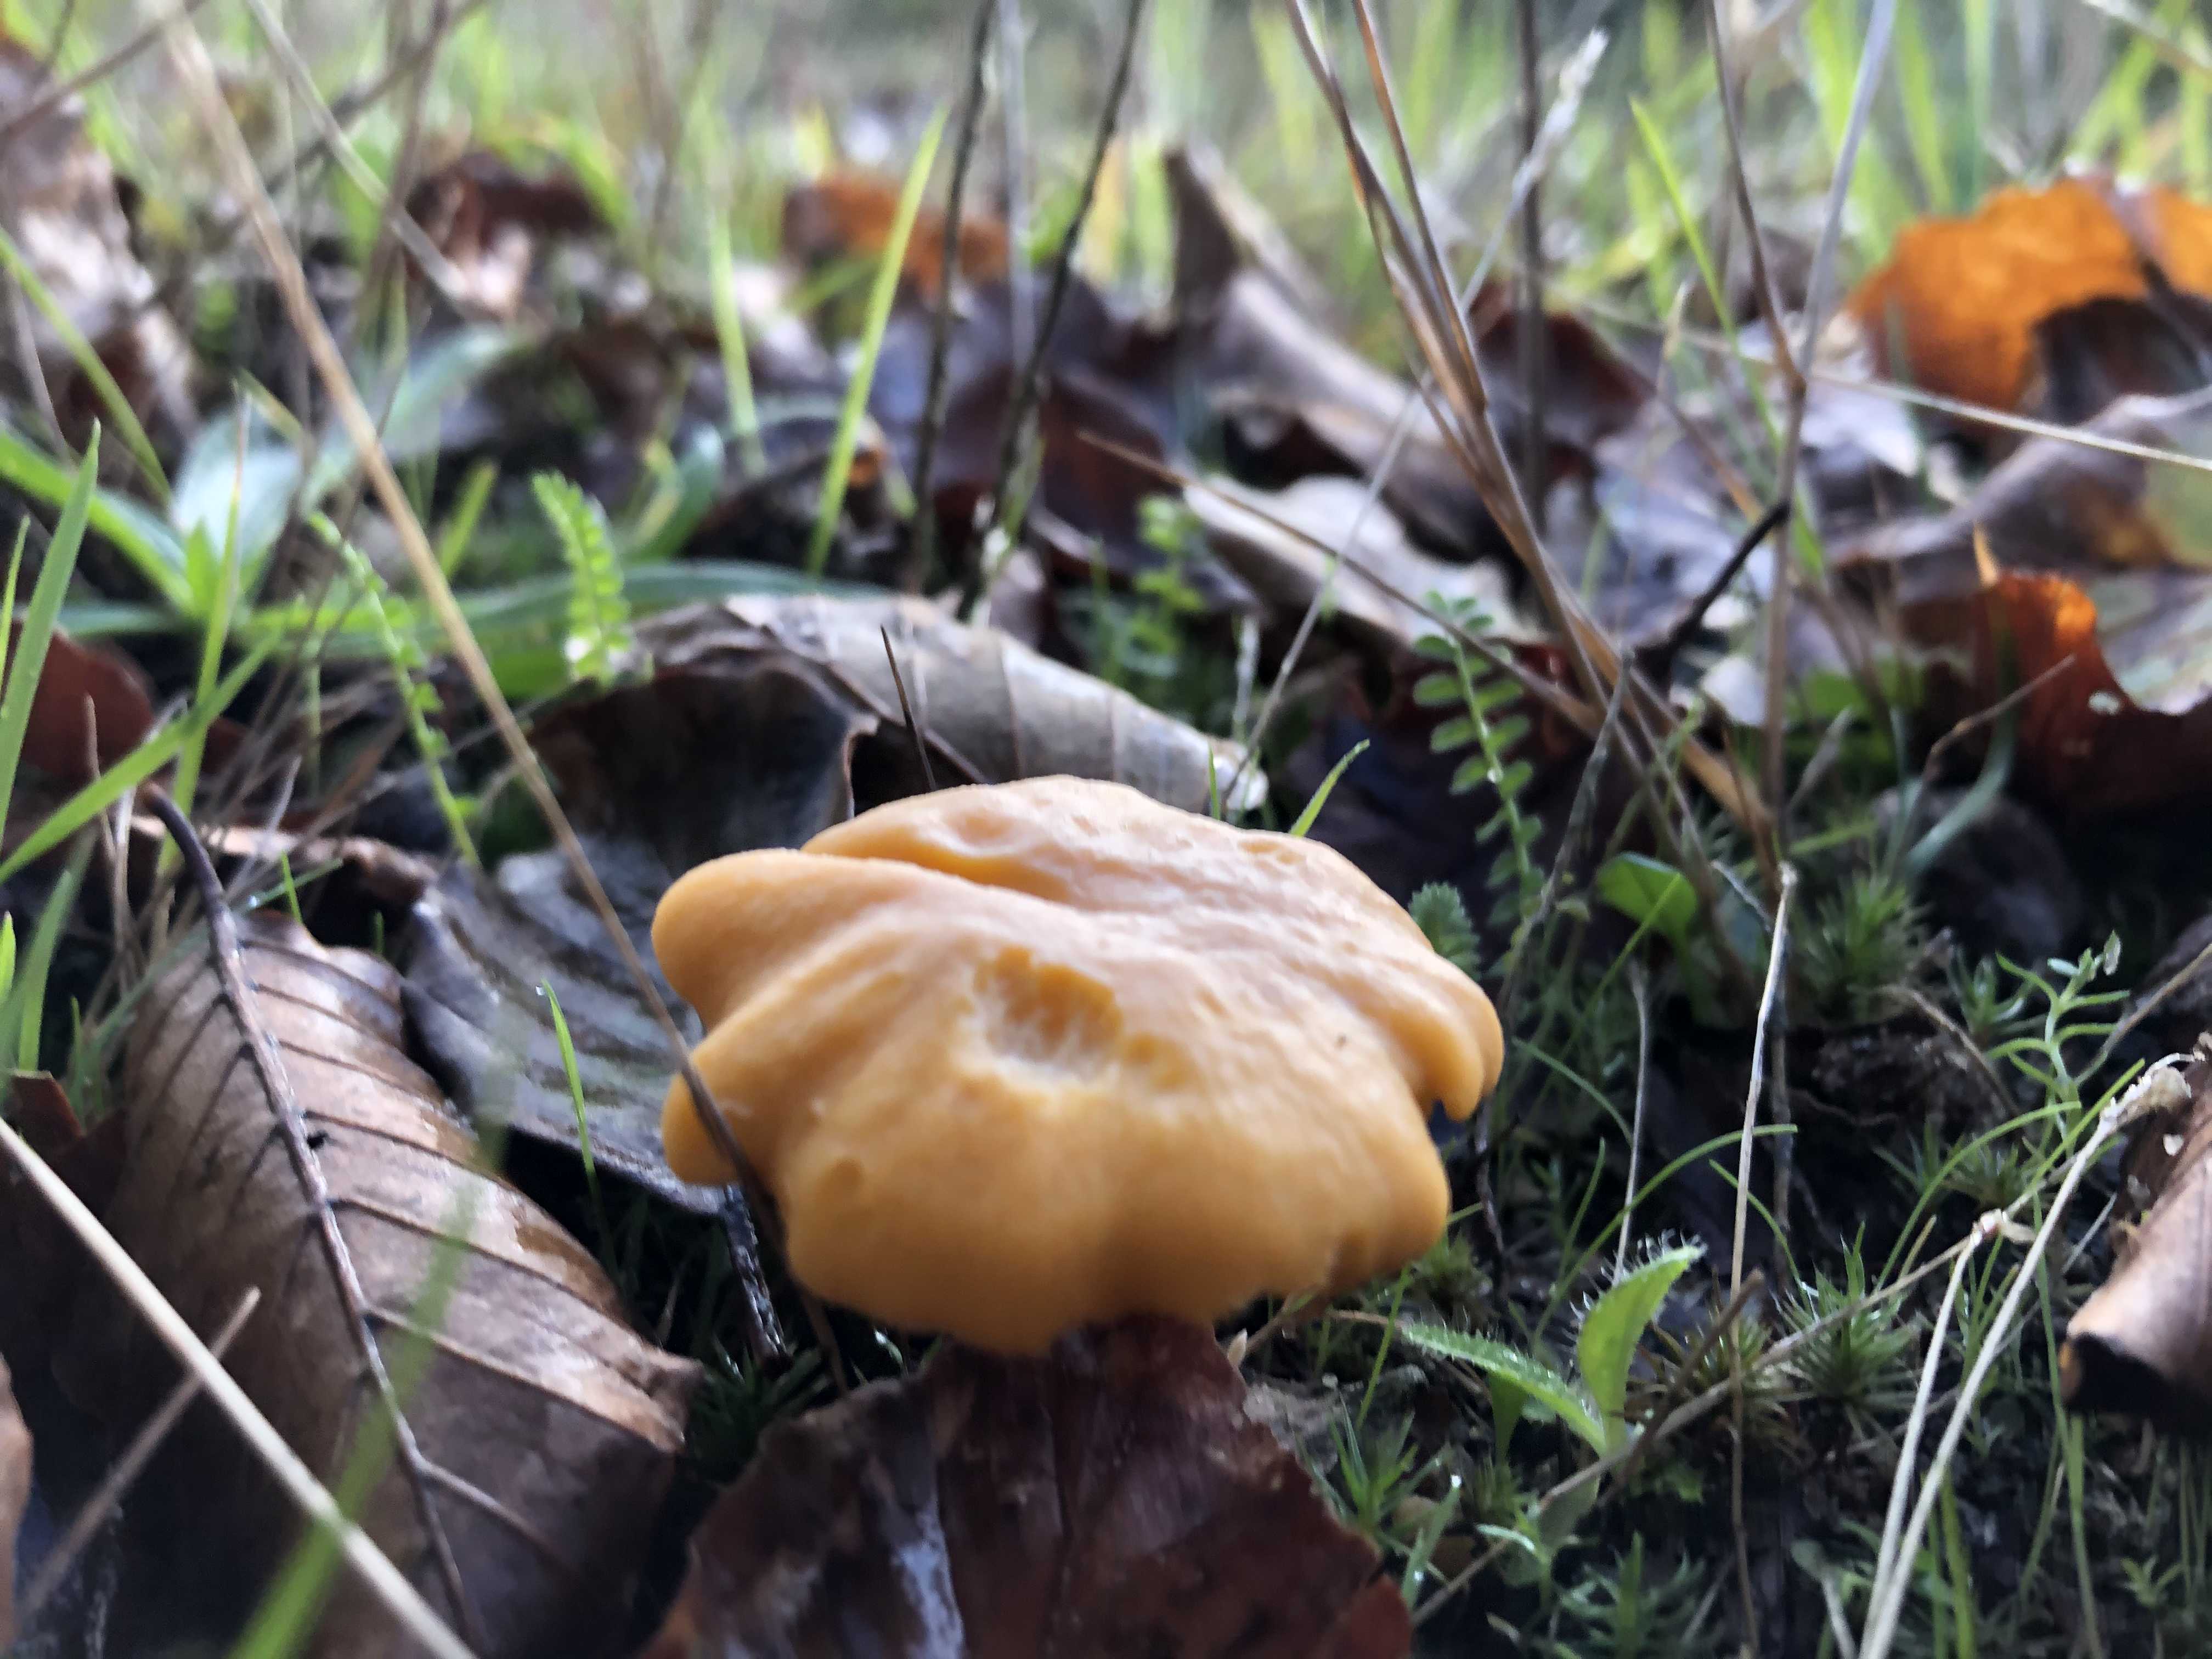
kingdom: Fungi
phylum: Basidiomycota
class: Agaricomycetes
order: Cantharellales
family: Hydnaceae
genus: Cantharellus
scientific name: Cantharellus cibarius
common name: almindelig kantarel
